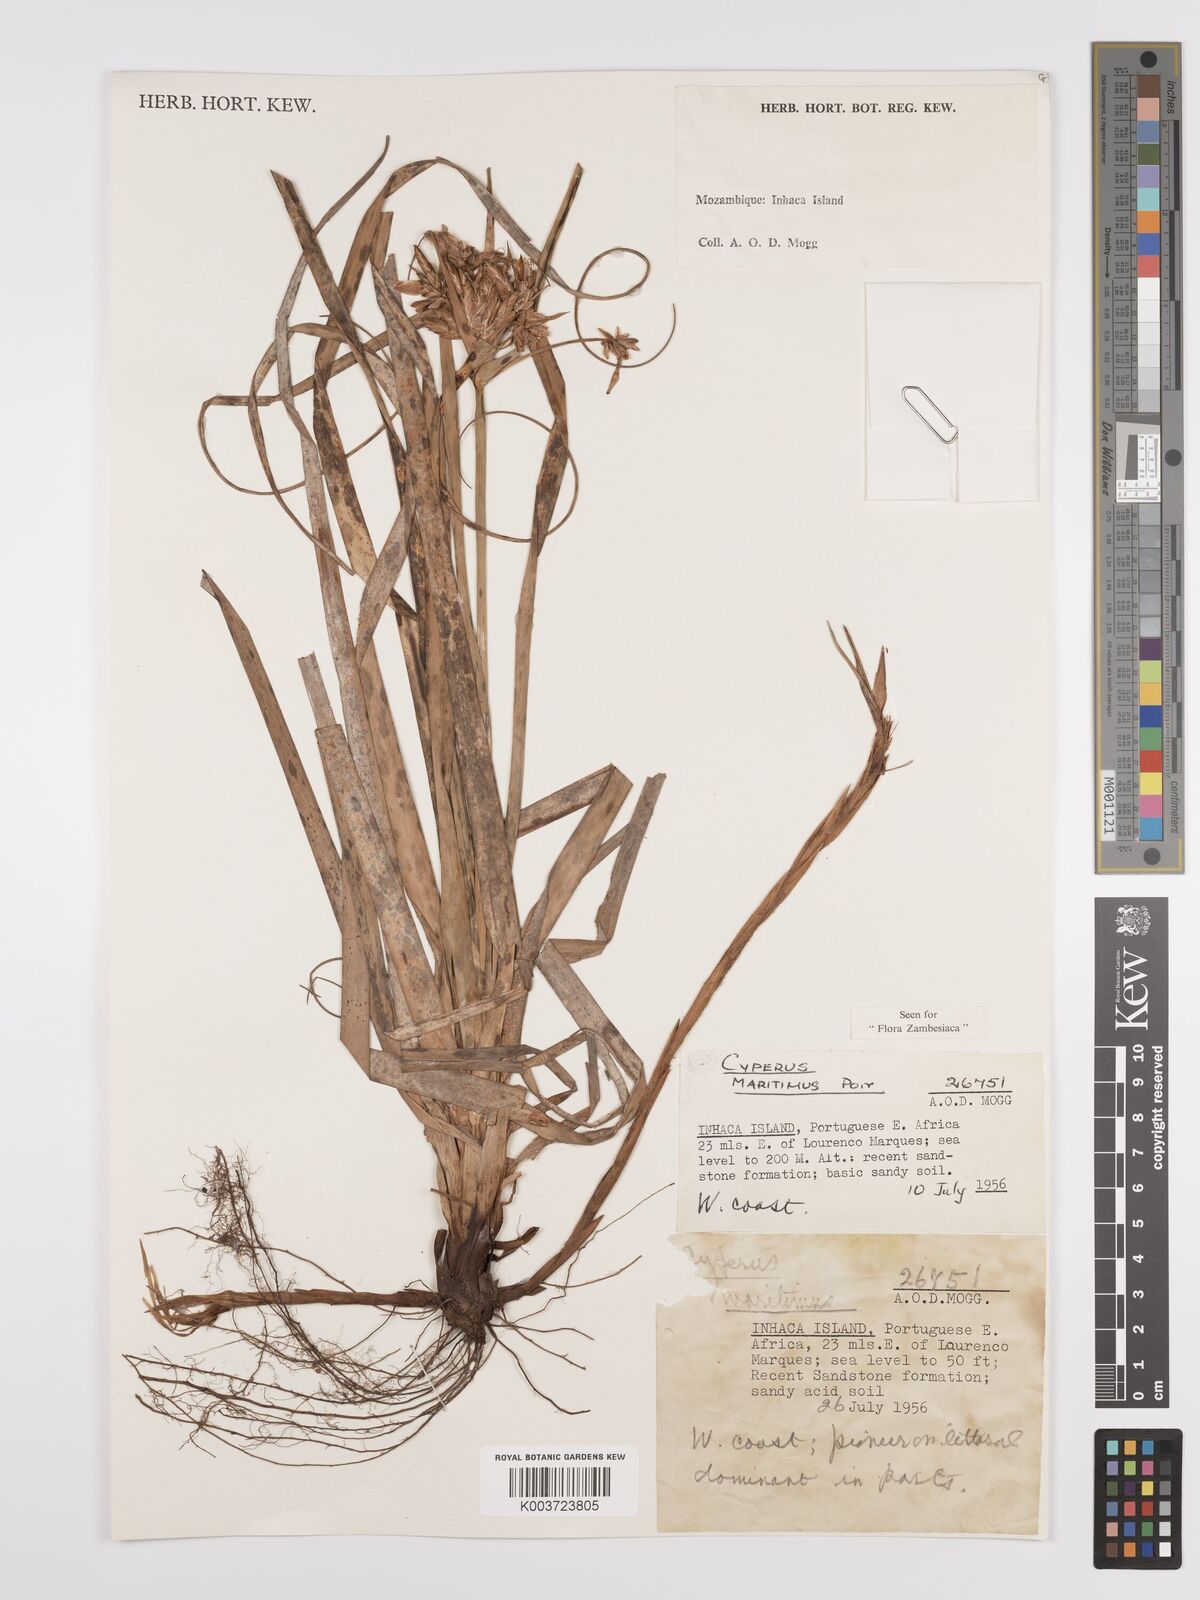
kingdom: Plantae
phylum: Tracheophyta
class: Liliopsida
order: Poales
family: Cyperaceae
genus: Cyperus
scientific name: Cyperus crassipes
